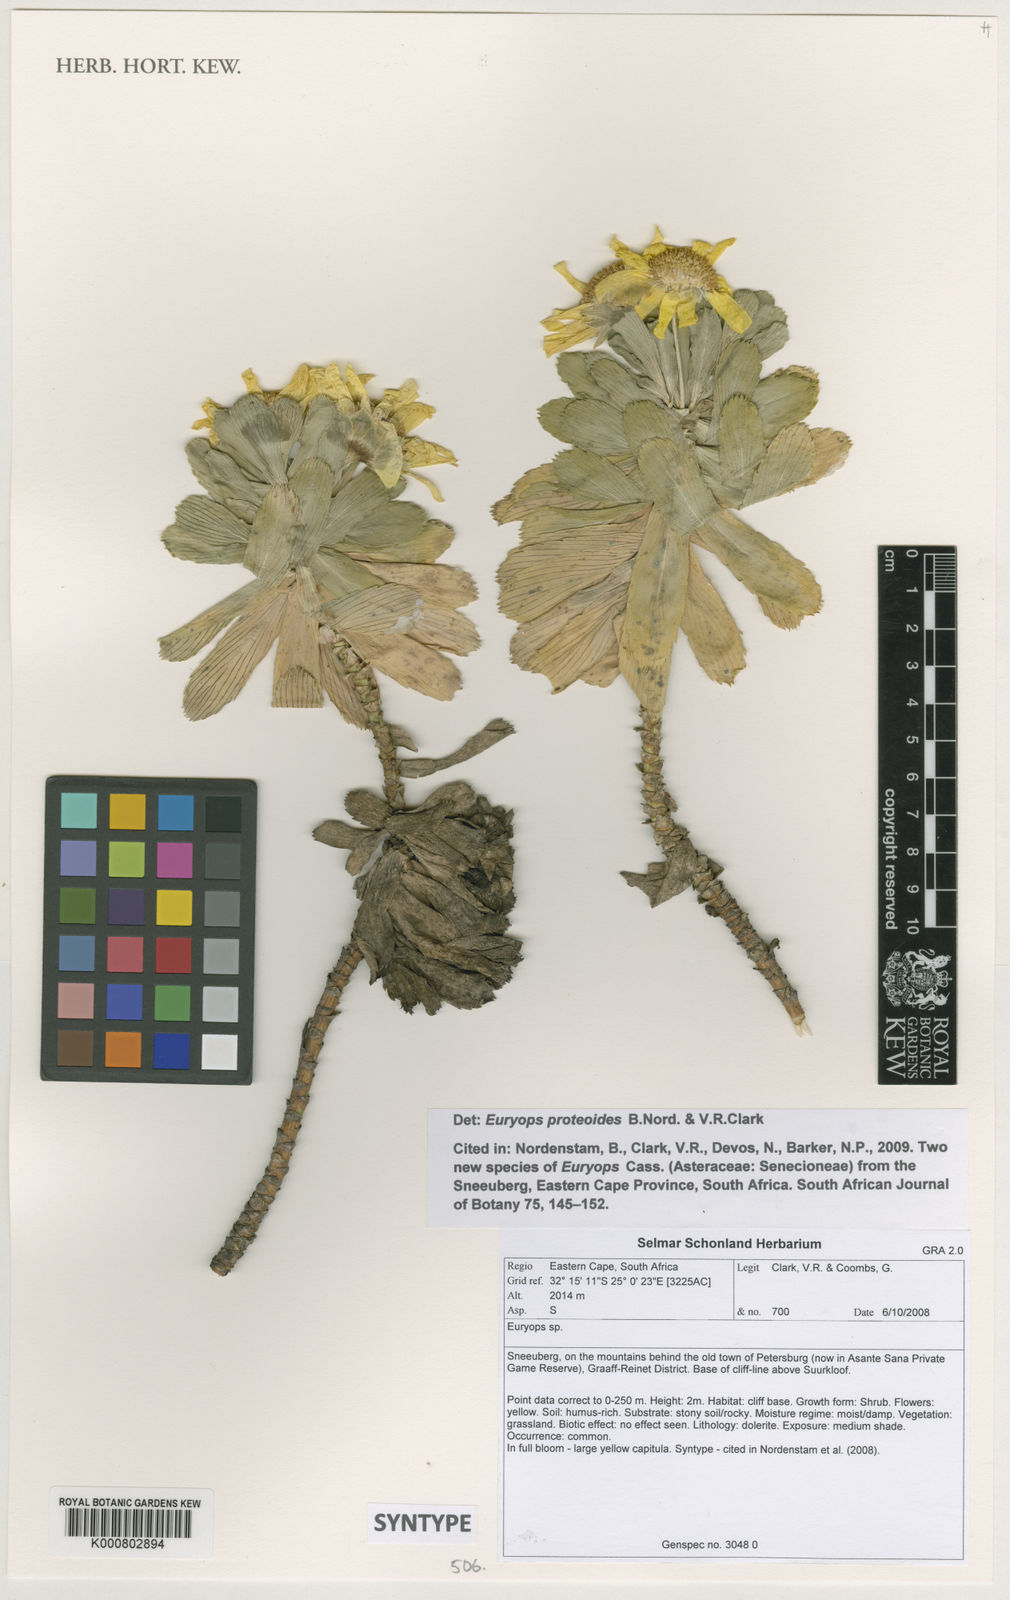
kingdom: Plantae
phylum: Tracheophyta
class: Magnoliopsida
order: Asterales
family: Asteraceae
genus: Euryops
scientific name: Euryops proteoides
